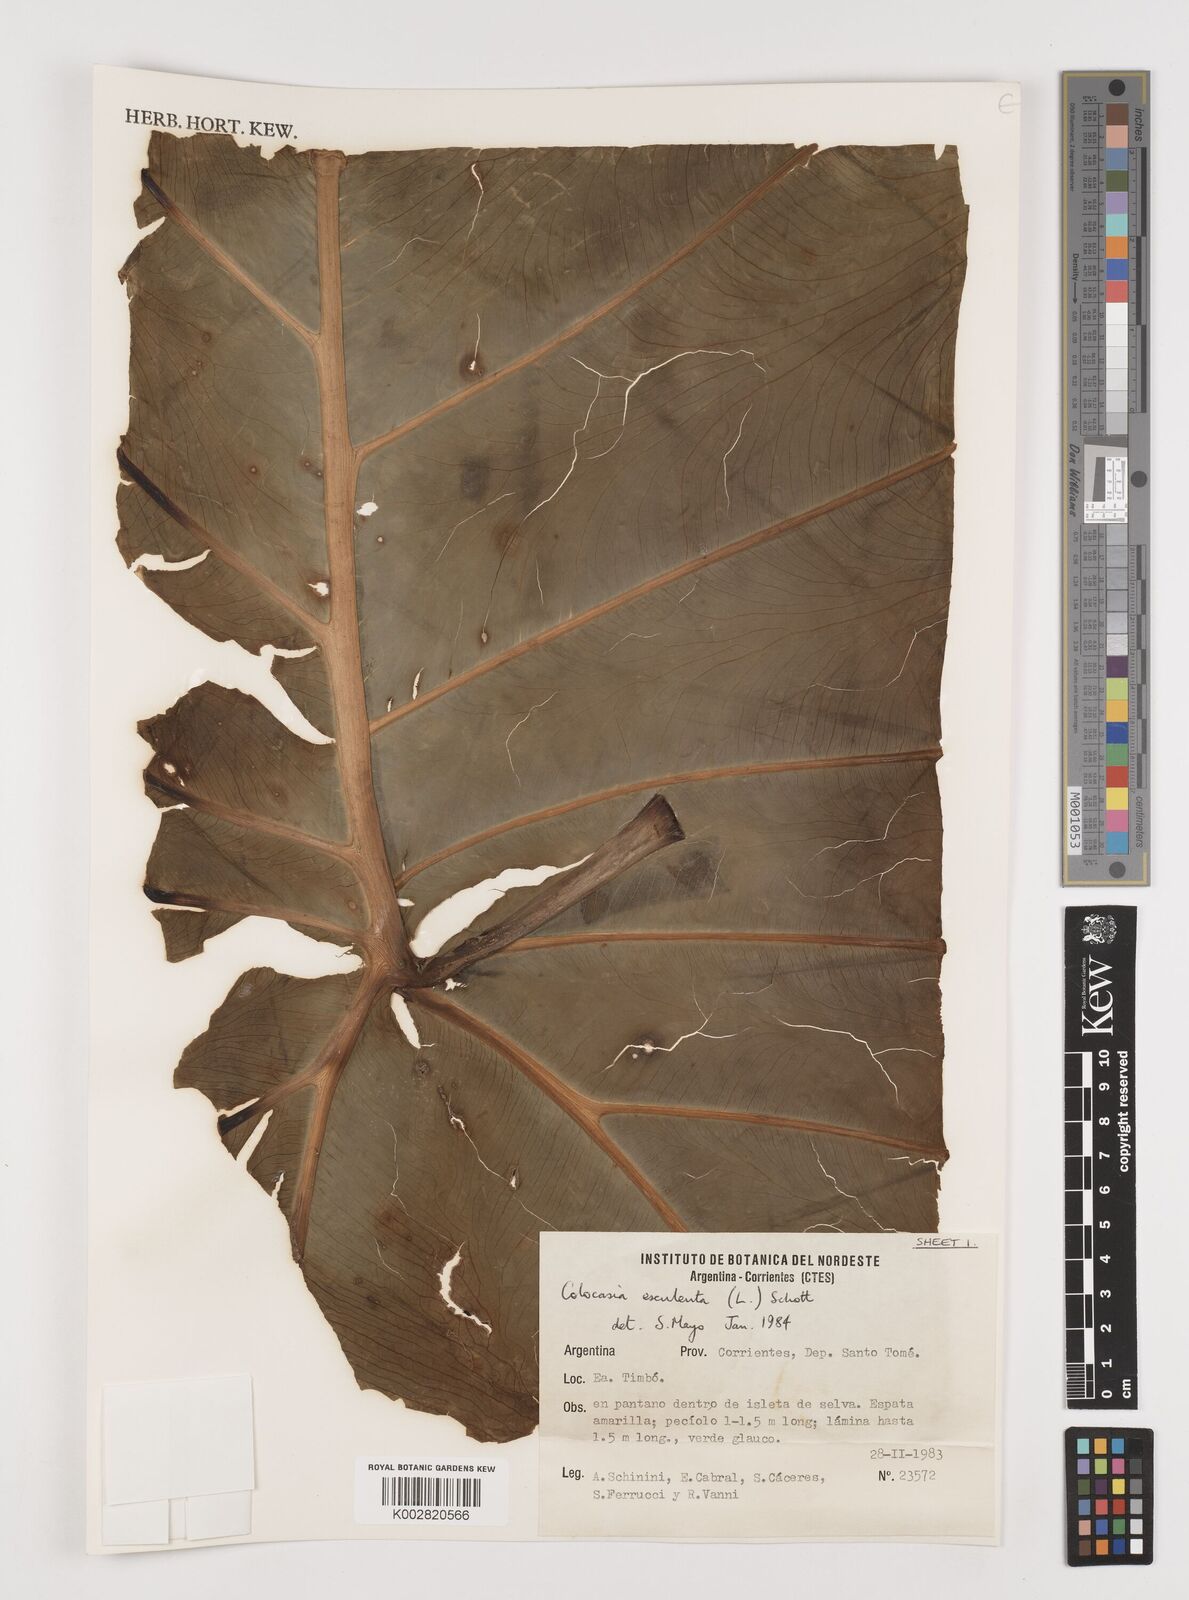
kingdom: Plantae
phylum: Tracheophyta
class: Liliopsida
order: Alismatales
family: Araceae
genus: Colocasia
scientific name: Colocasia esculenta
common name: Taro
